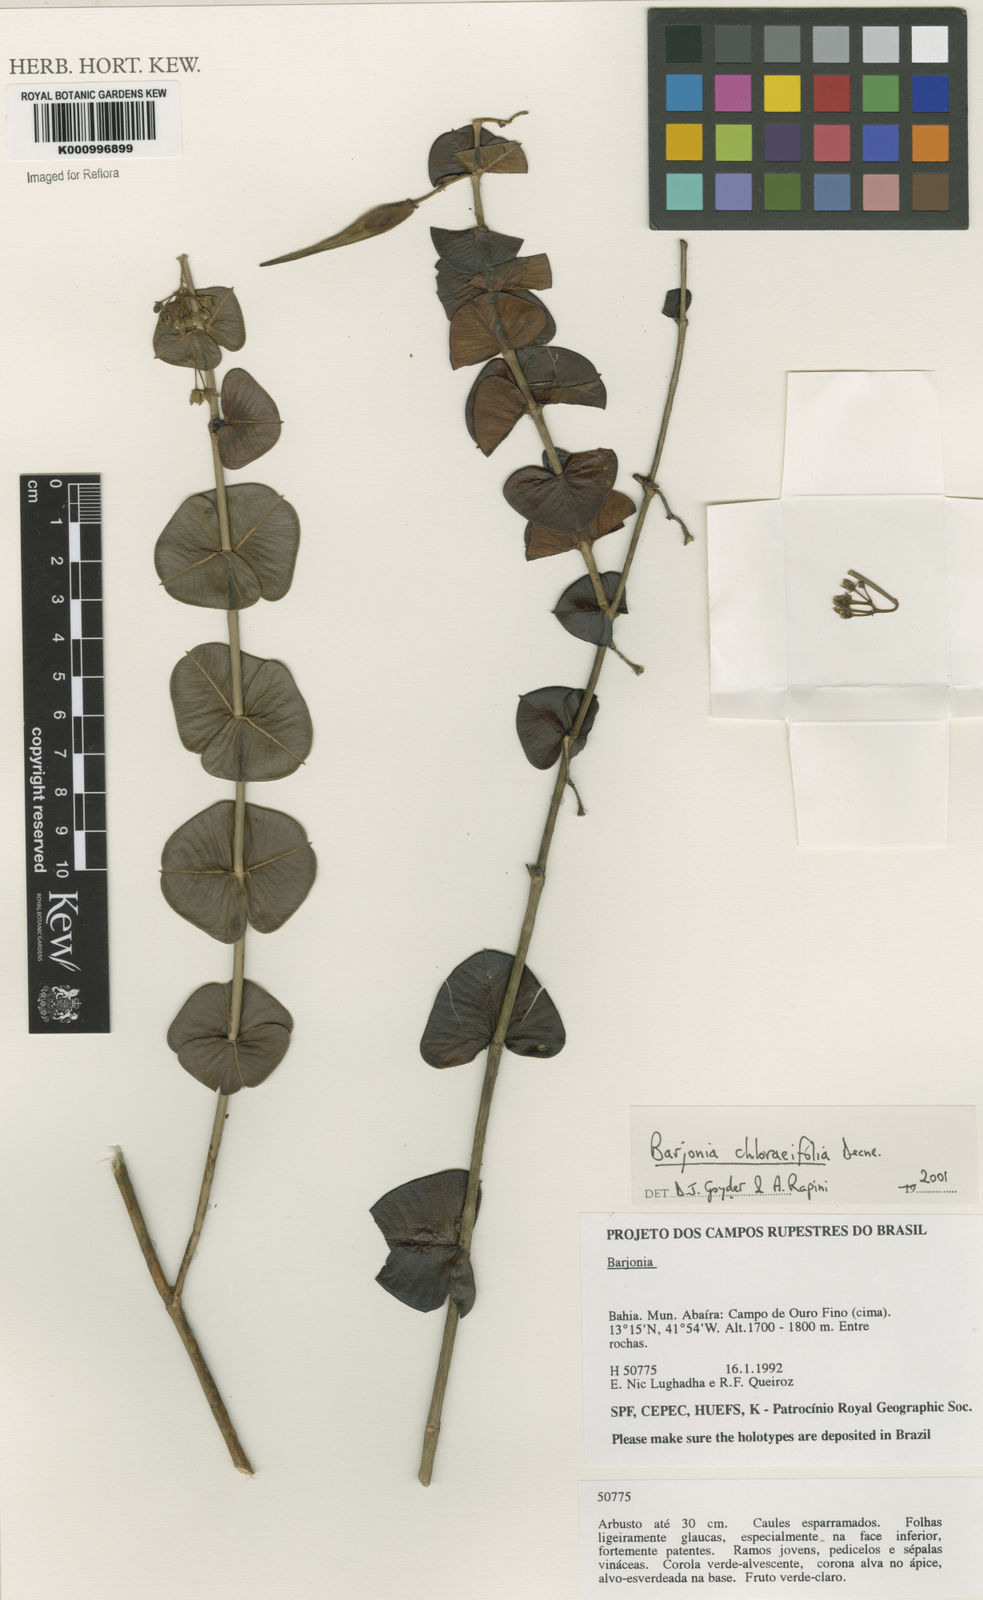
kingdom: Plantae
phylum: Tracheophyta
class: Magnoliopsida
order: Gentianales
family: Apocynaceae
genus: Barjonia
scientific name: Barjonia
